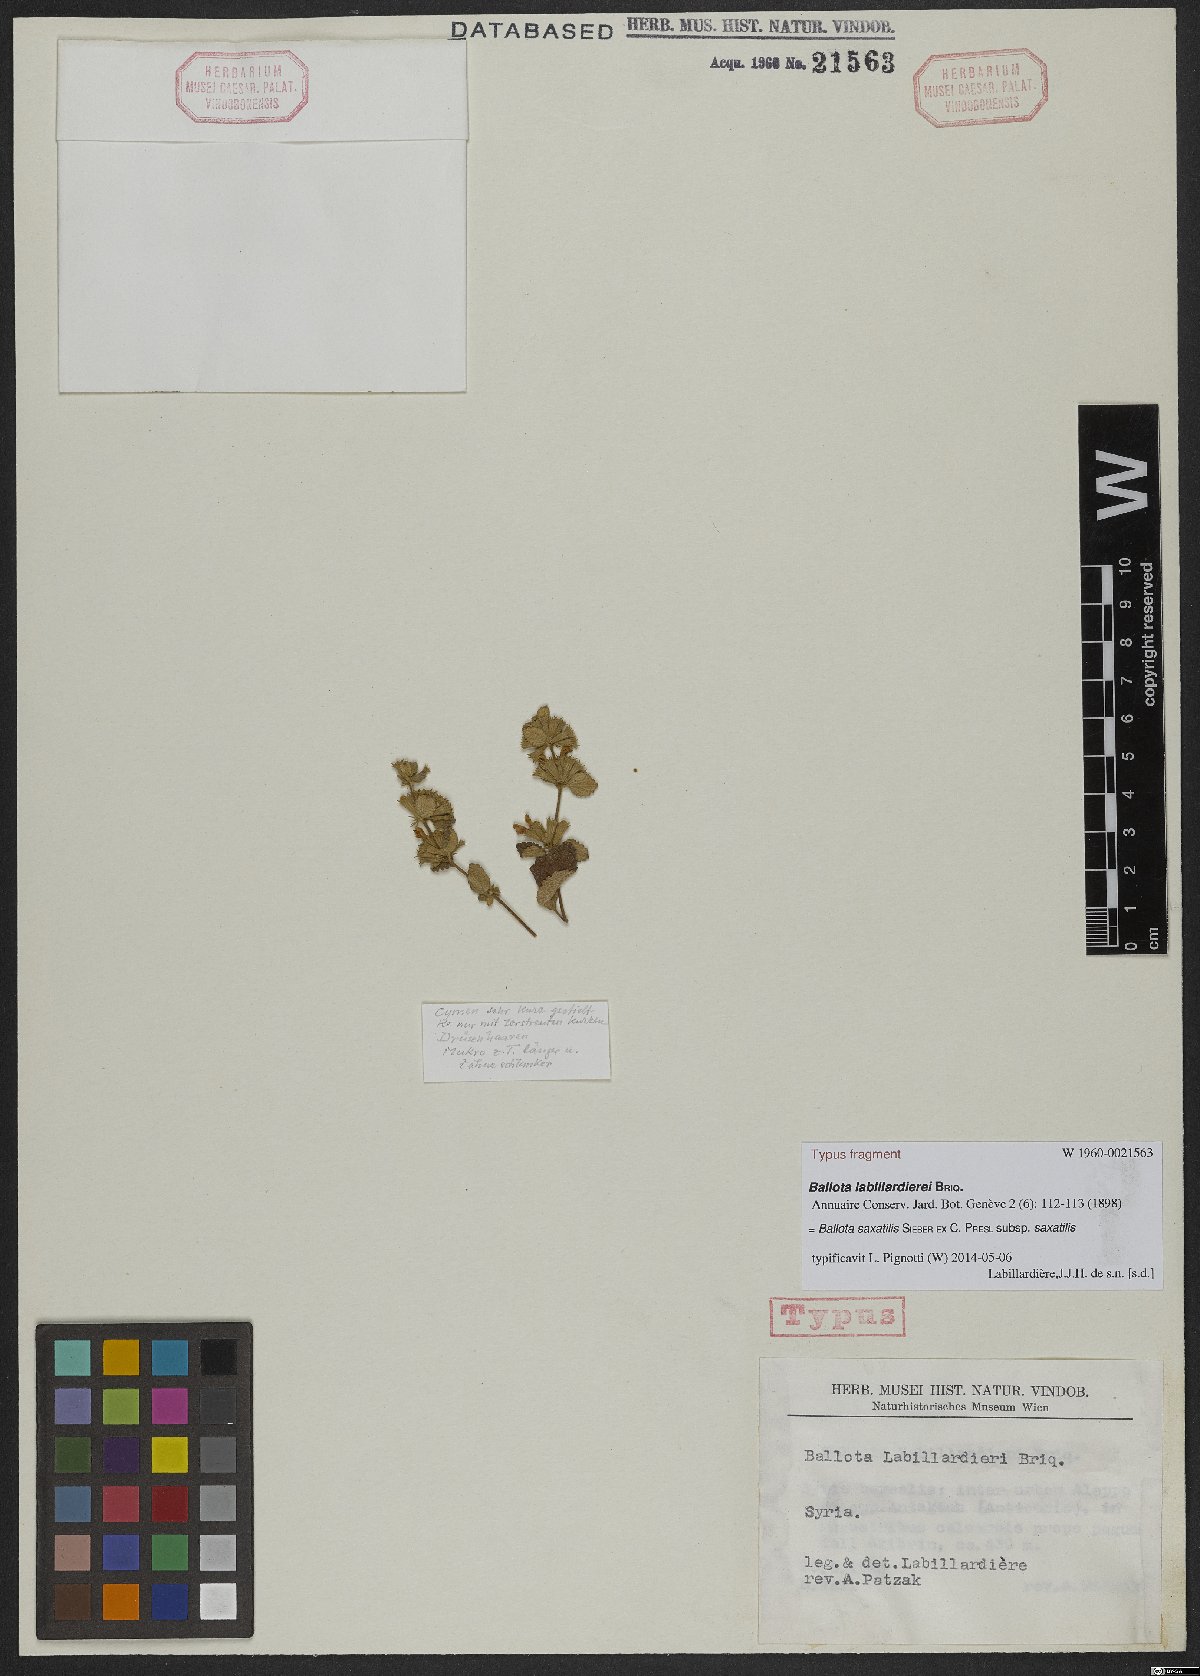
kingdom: Plantae
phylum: Tracheophyta
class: Magnoliopsida
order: Lamiales
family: Lamiaceae
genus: Ballota
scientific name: Ballota saxatilis
